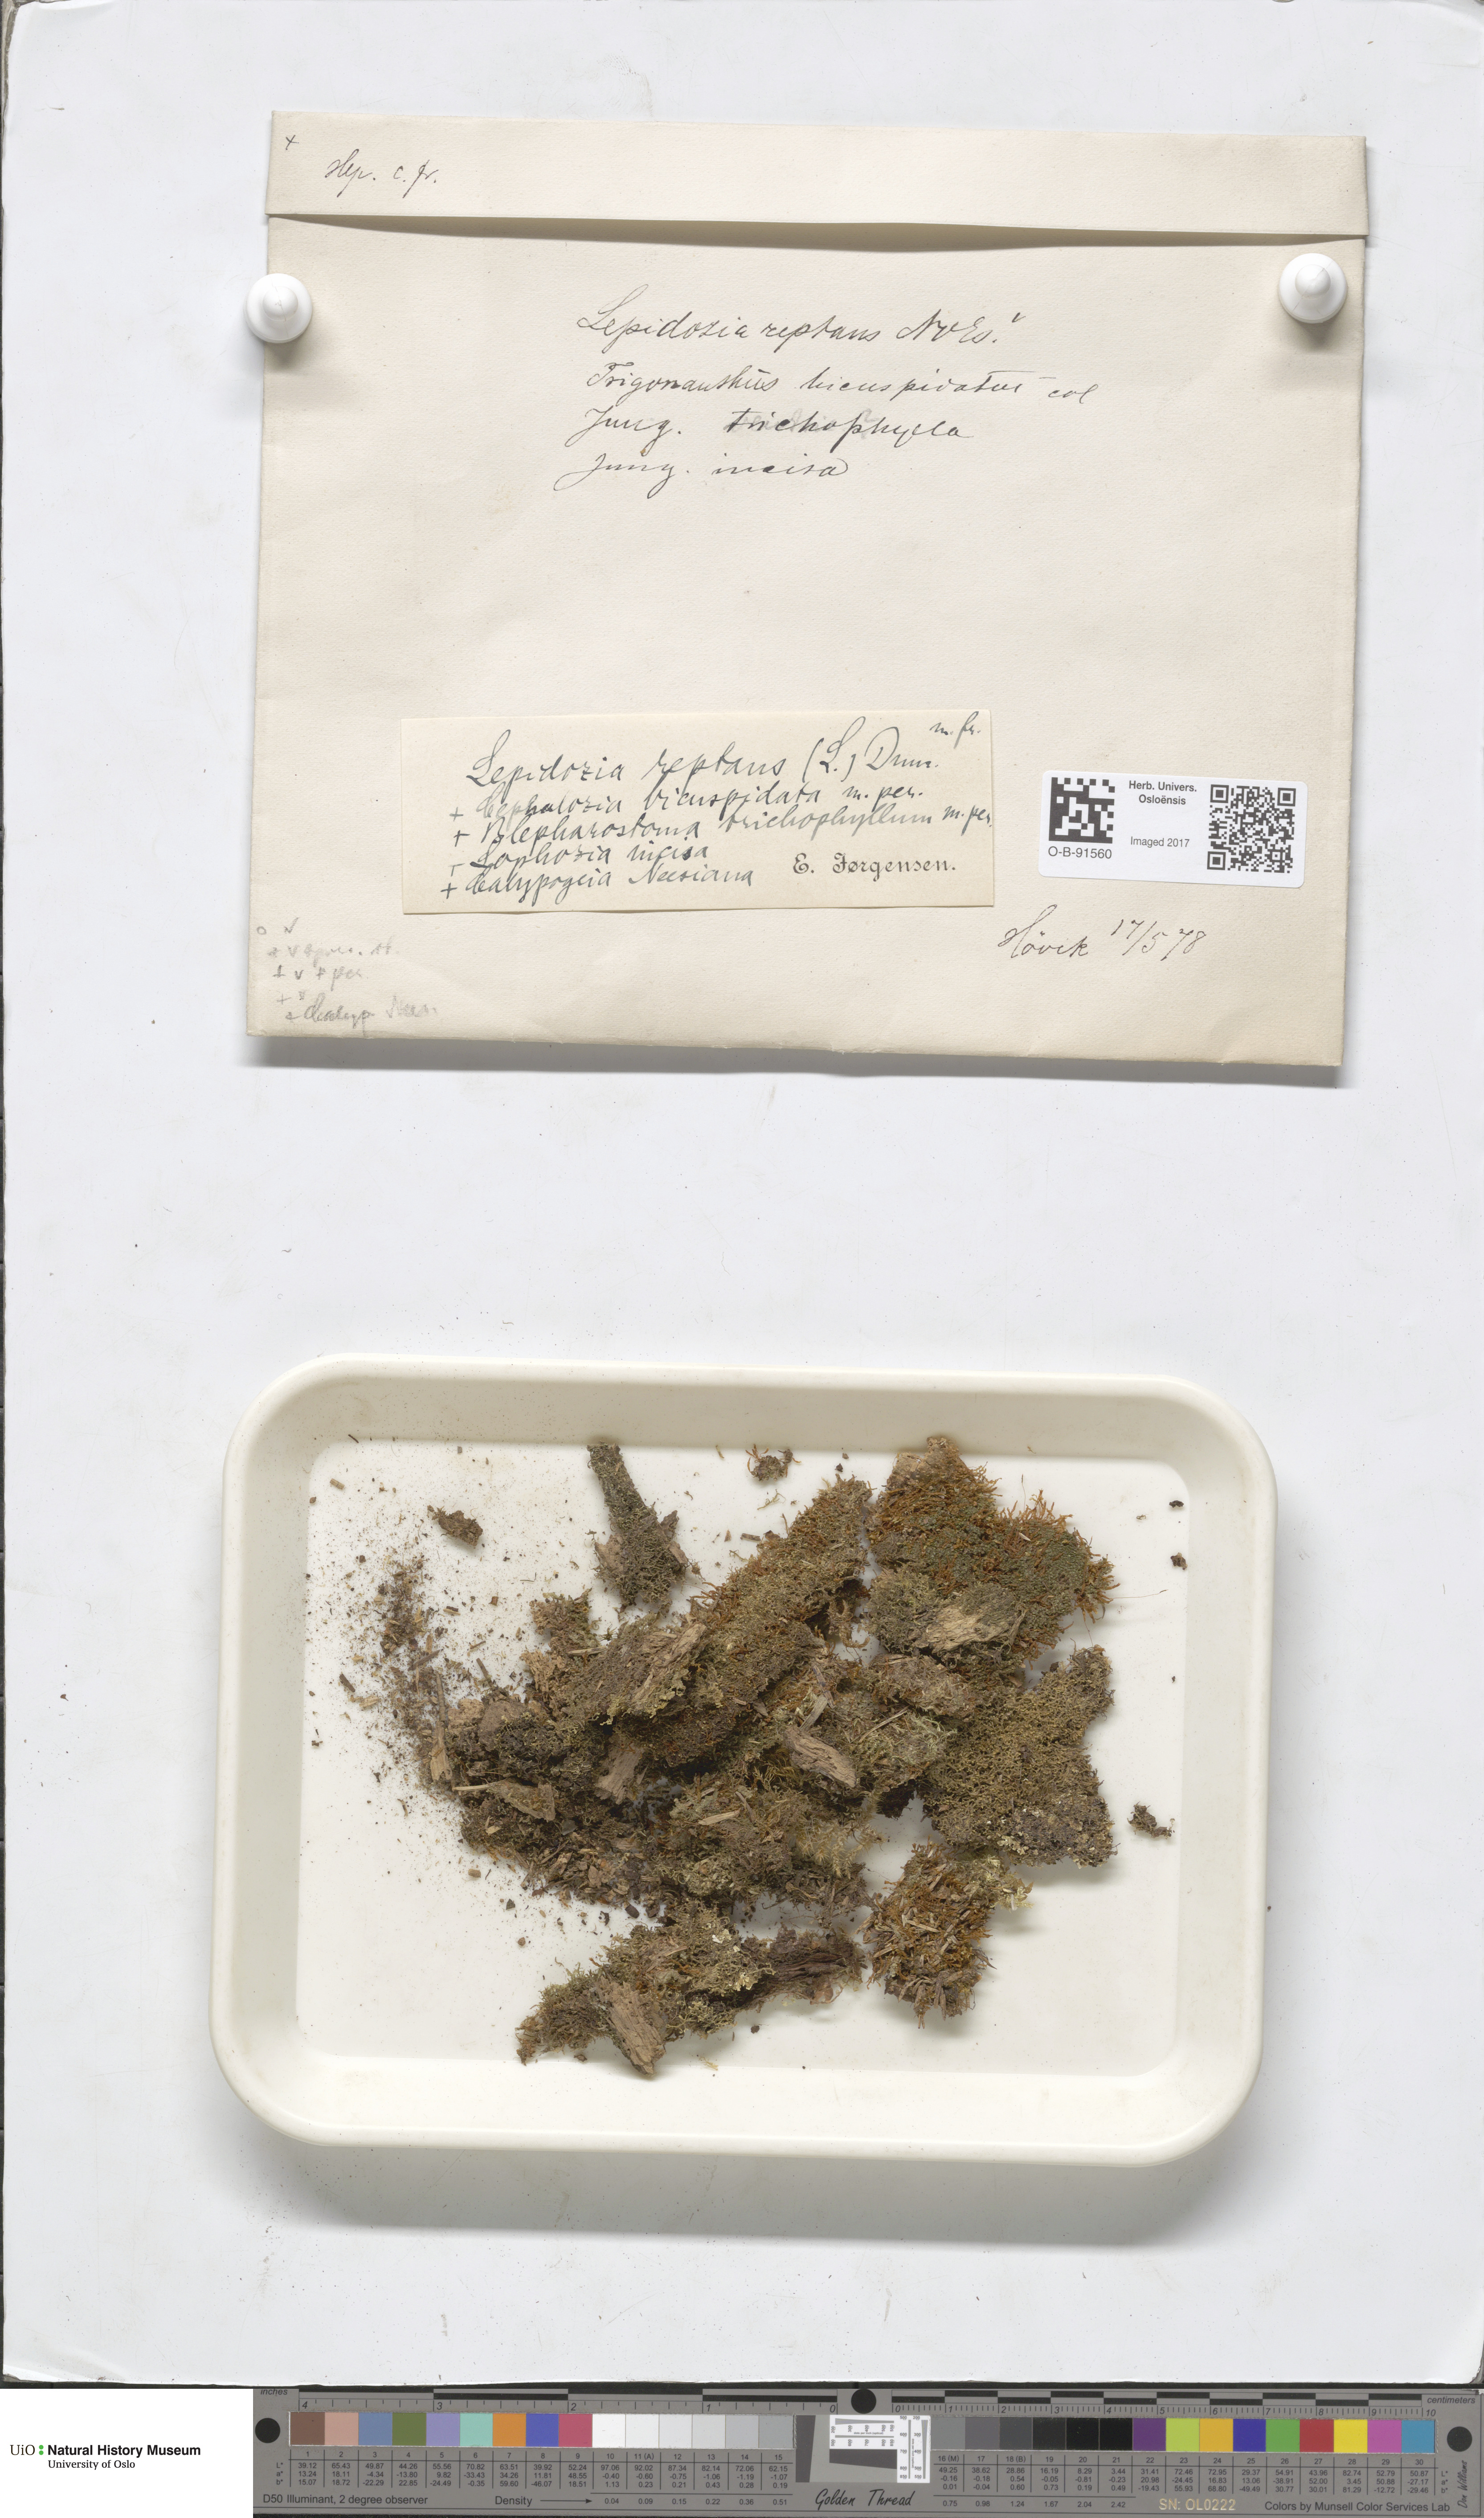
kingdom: Plantae
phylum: Marchantiophyta
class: Jungermanniopsida
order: Jungermanniales
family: Lepidoziaceae
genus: Lepidozia
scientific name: Lepidozia reptans
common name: Creeping fingerwort
